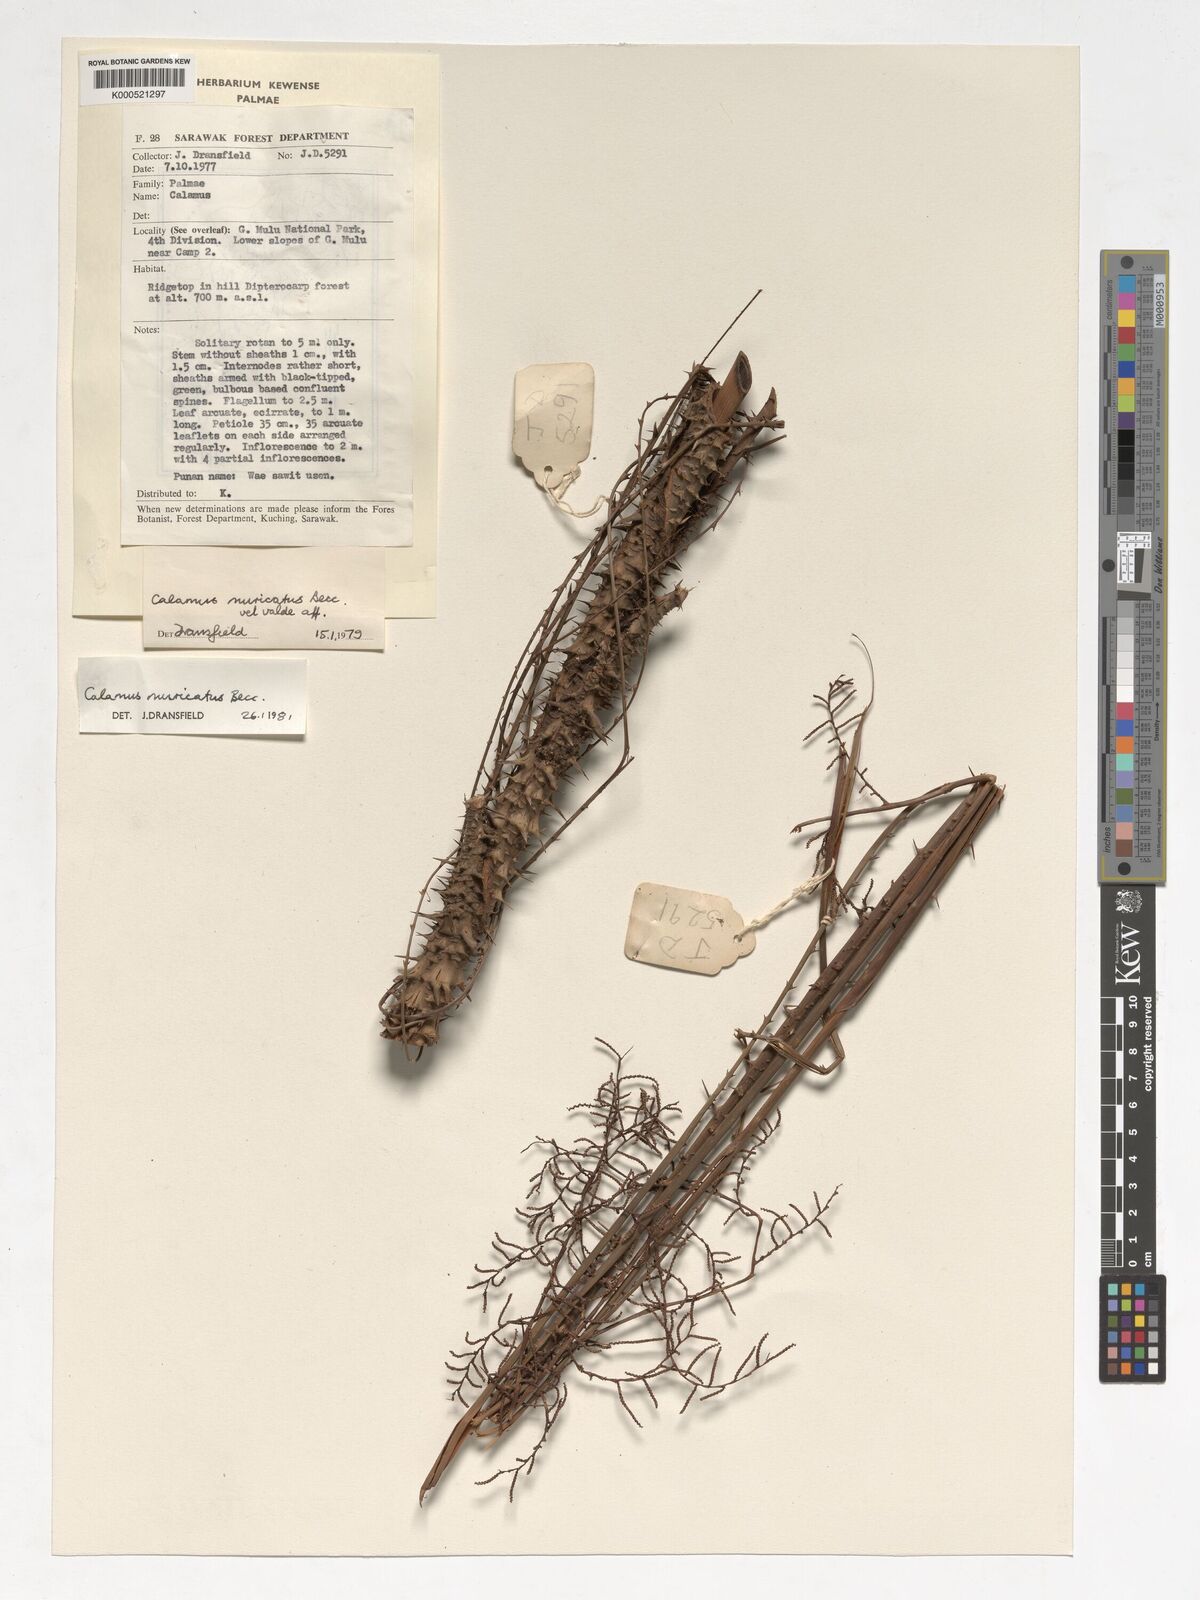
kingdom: Plantae
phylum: Tracheophyta
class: Liliopsida
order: Arecales
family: Arecaceae
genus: Calamus
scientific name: Calamus muricatus
